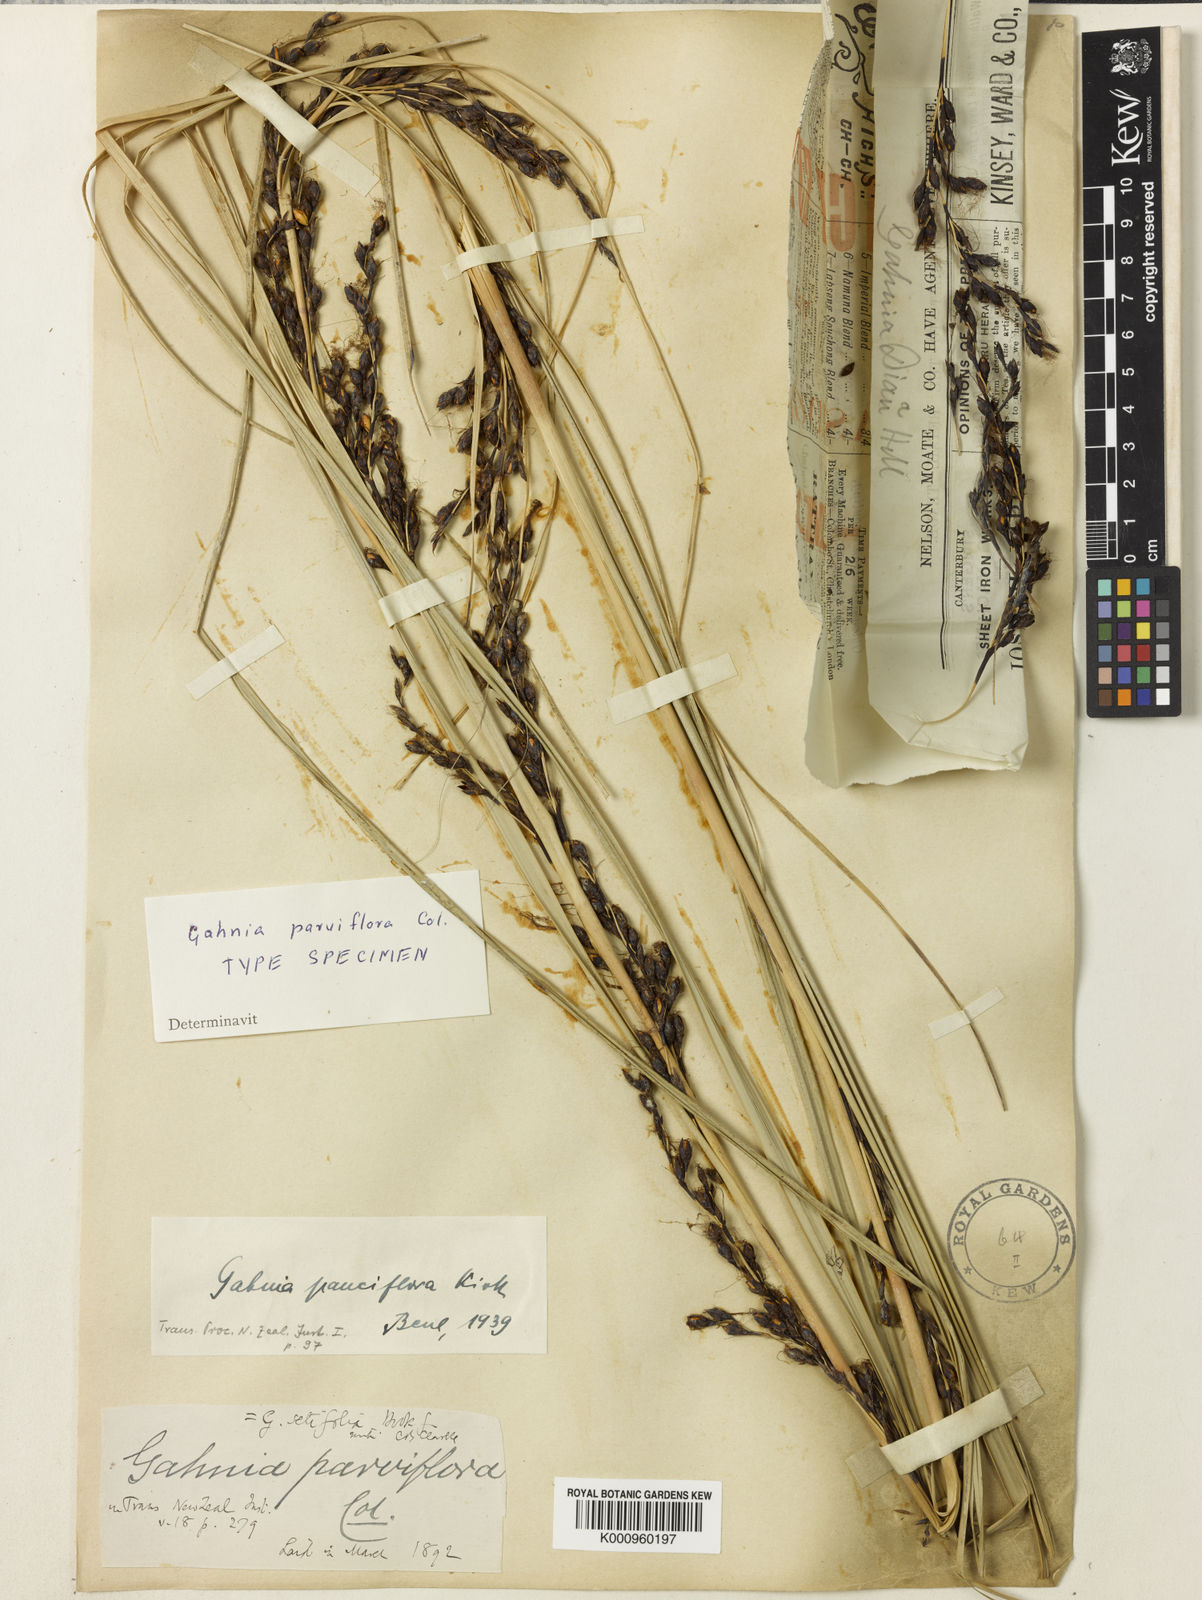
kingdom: Plantae
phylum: Tracheophyta
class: Liliopsida
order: Poales
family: Cyperaceae
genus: Gahnia
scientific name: Gahnia pauciflora
